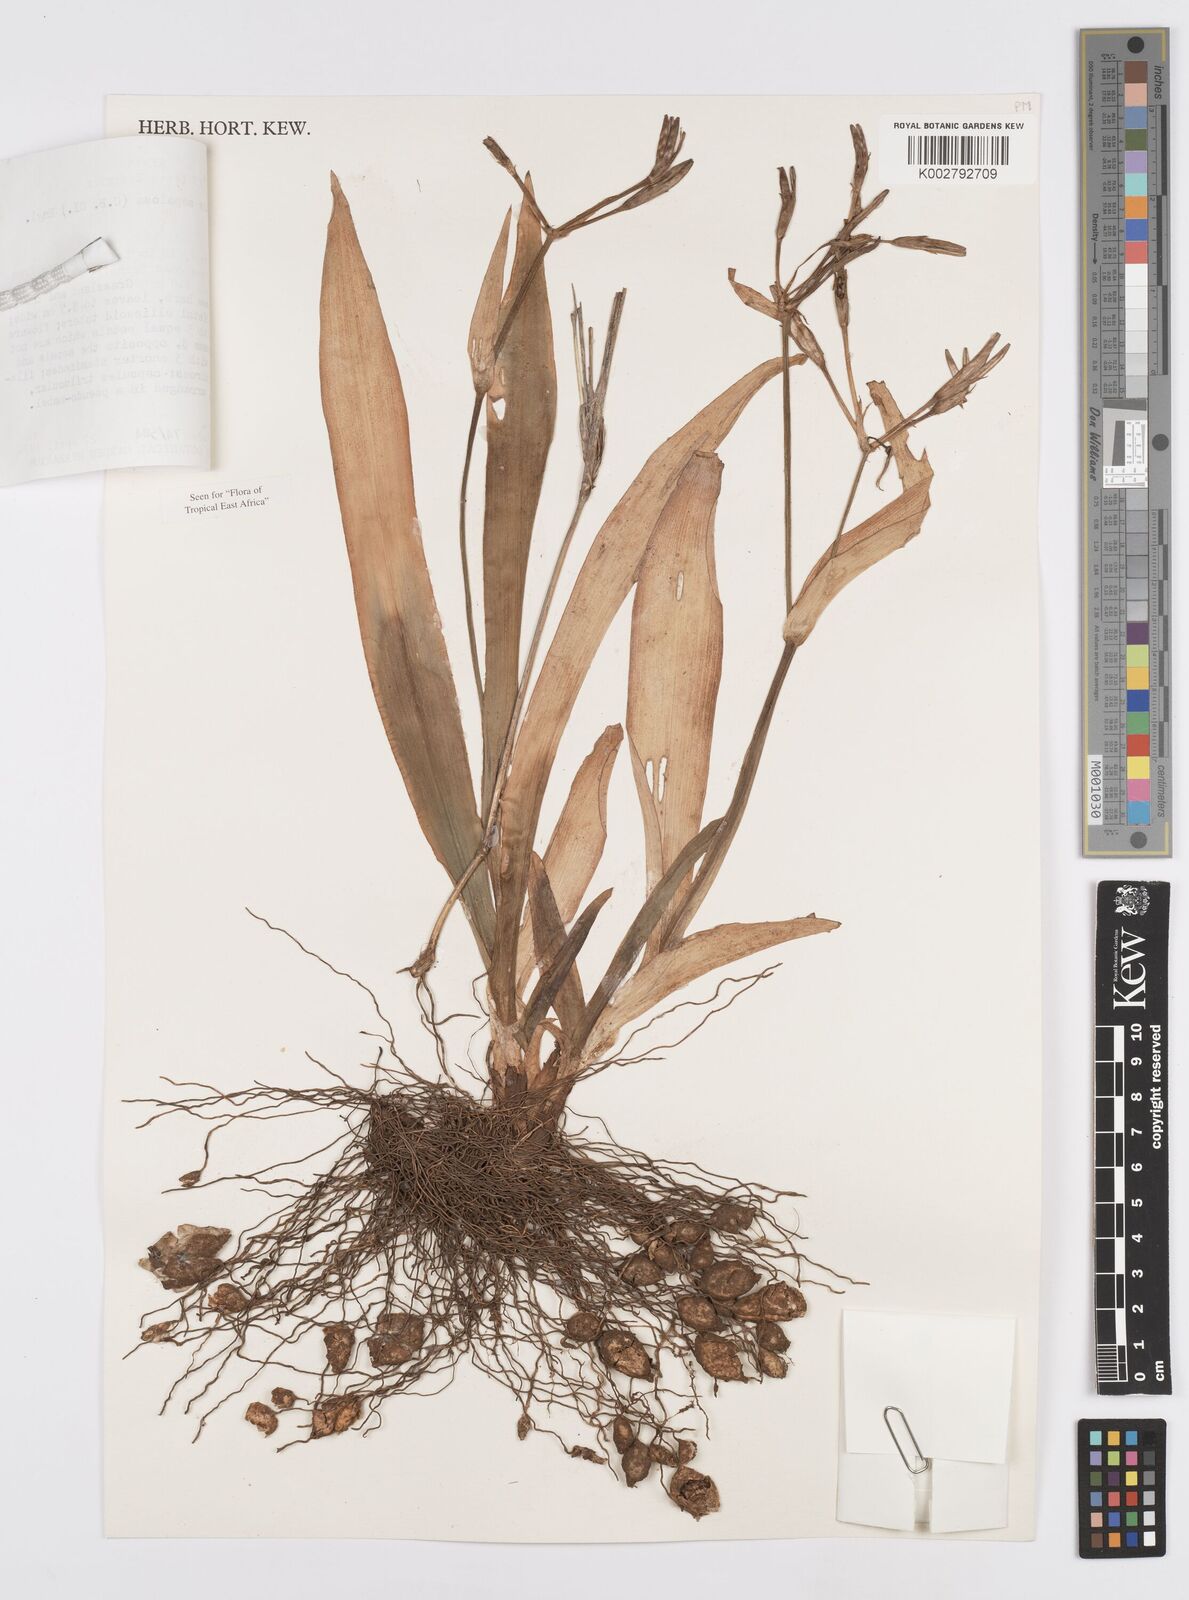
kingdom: Plantae
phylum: Tracheophyta
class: Liliopsida
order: Commelinales
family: Commelinaceae
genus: Anthericopsis
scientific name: Anthericopsis sepalosa
